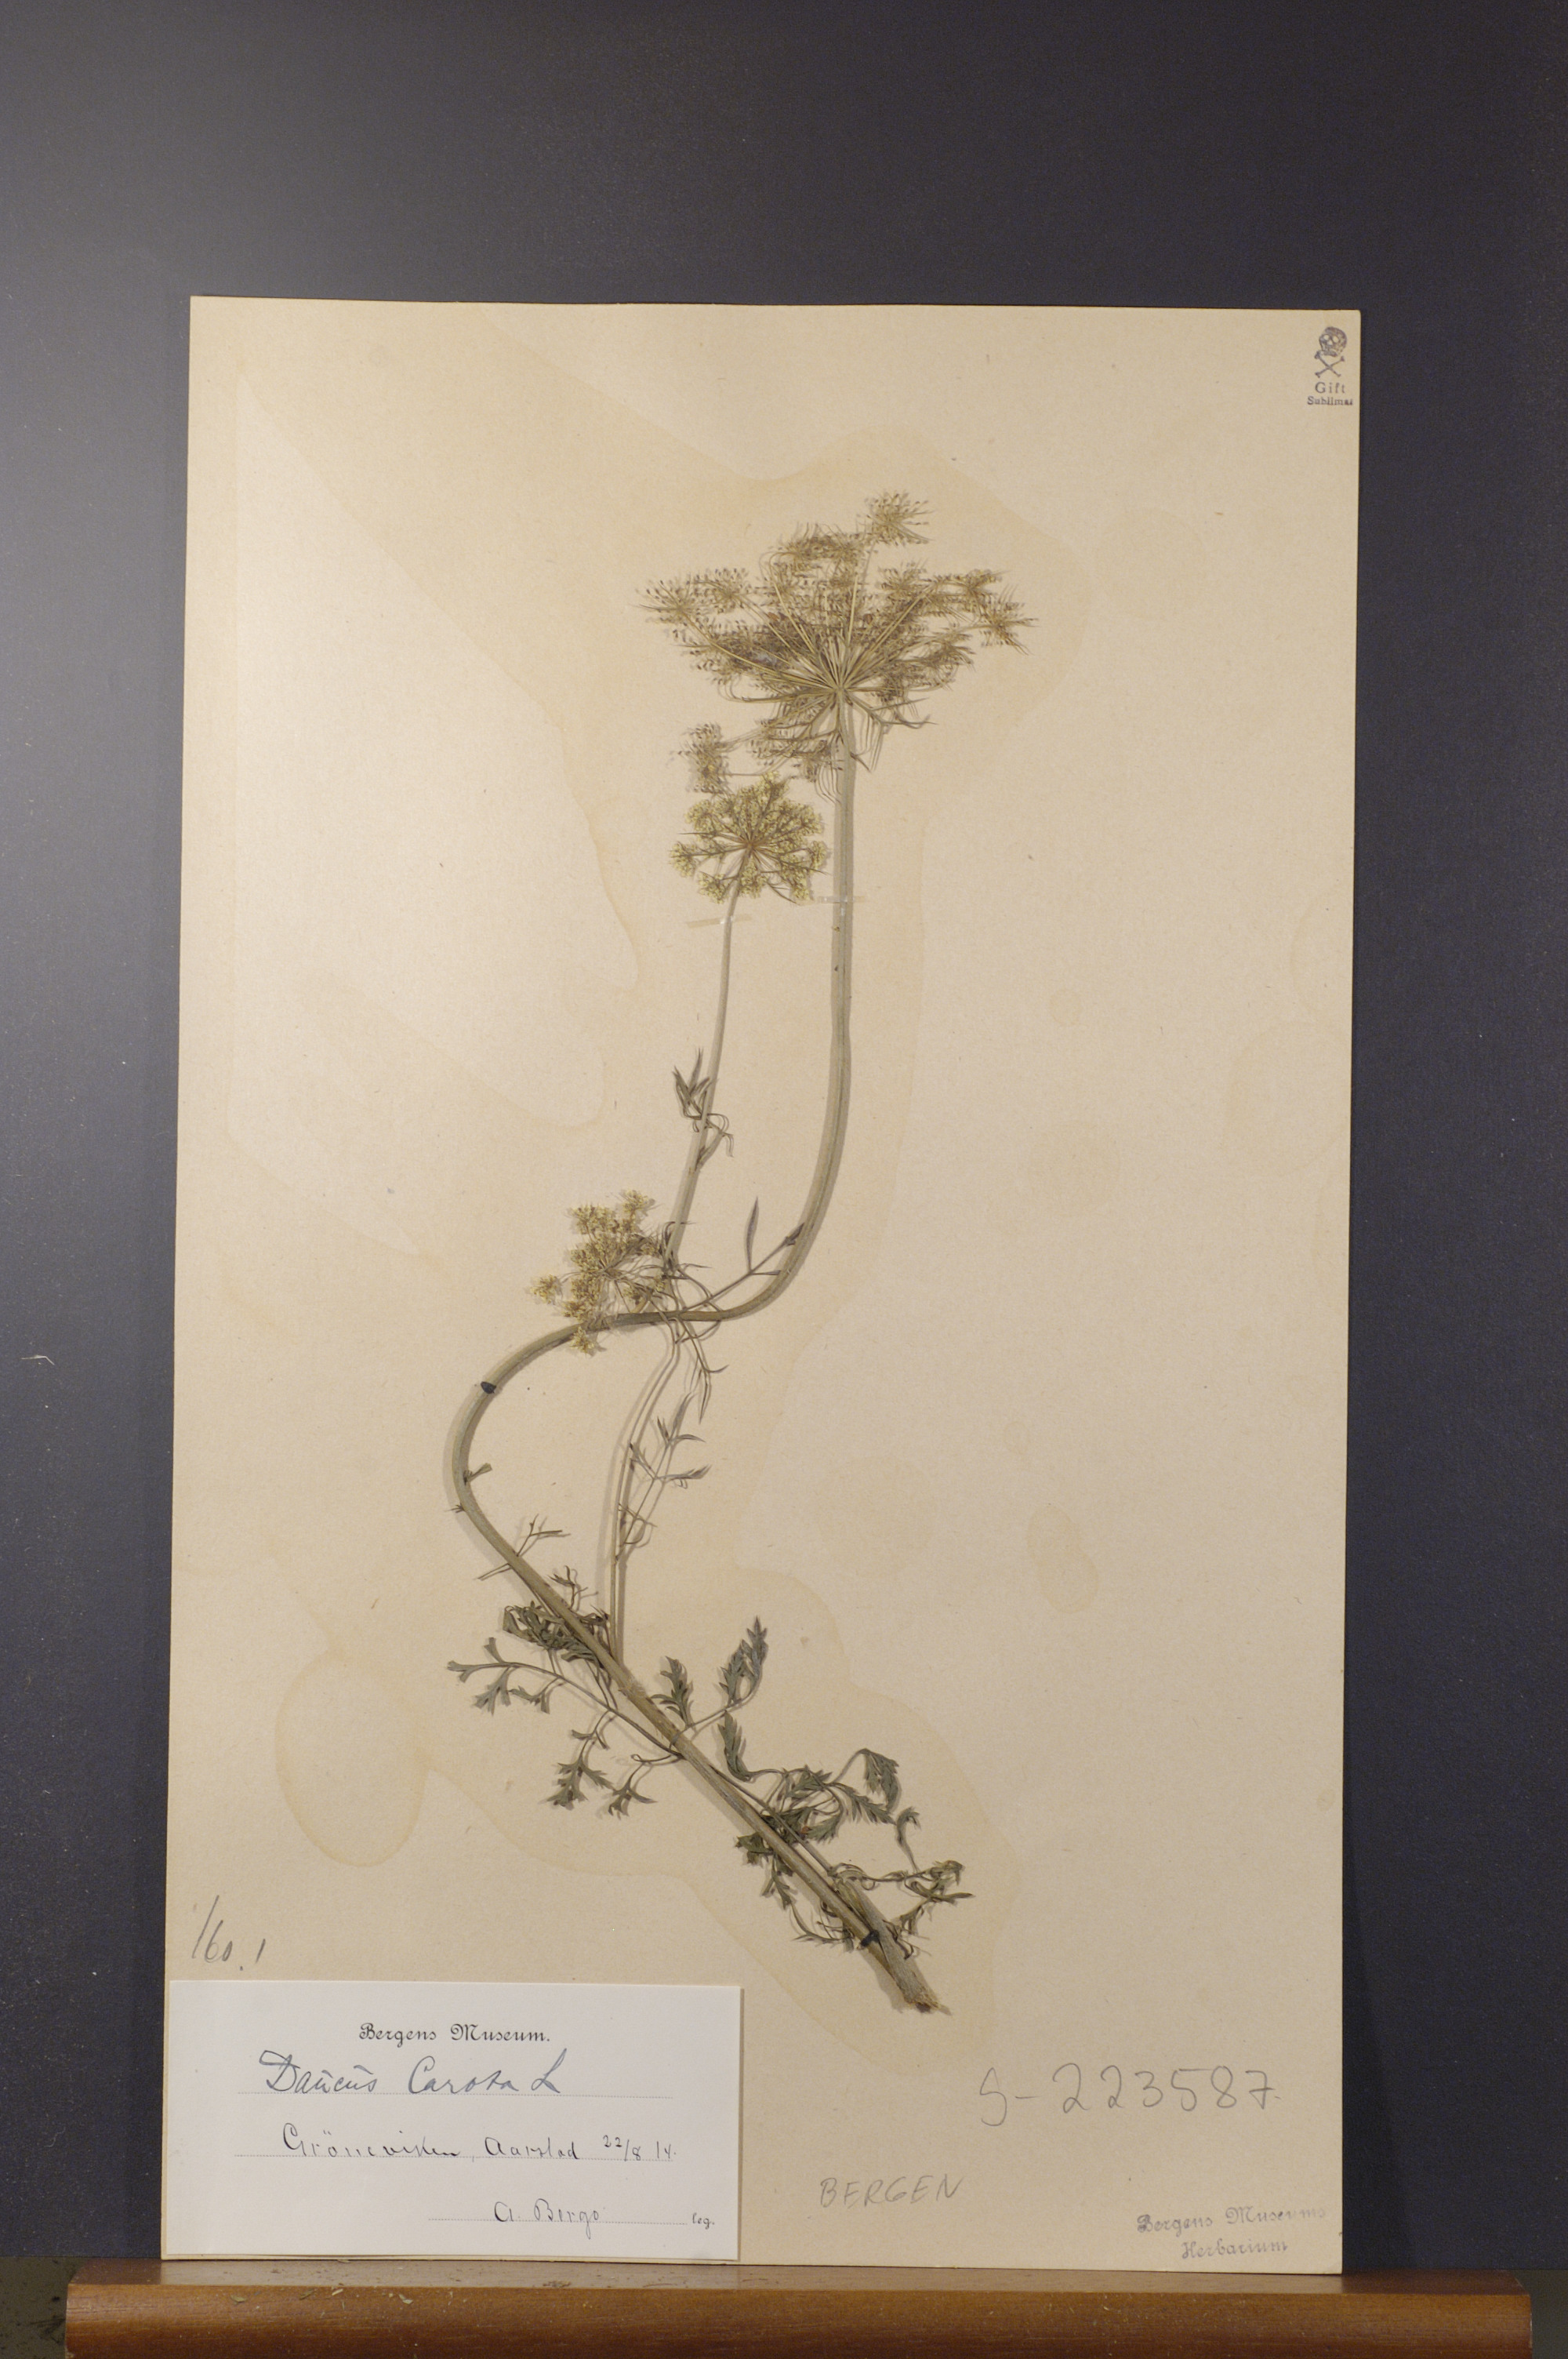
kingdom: Plantae
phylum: Tracheophyta
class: Magnoliopsida
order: Apiales
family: Apiaceae
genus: Daucus
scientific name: Daucus carota
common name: Wild carrot
